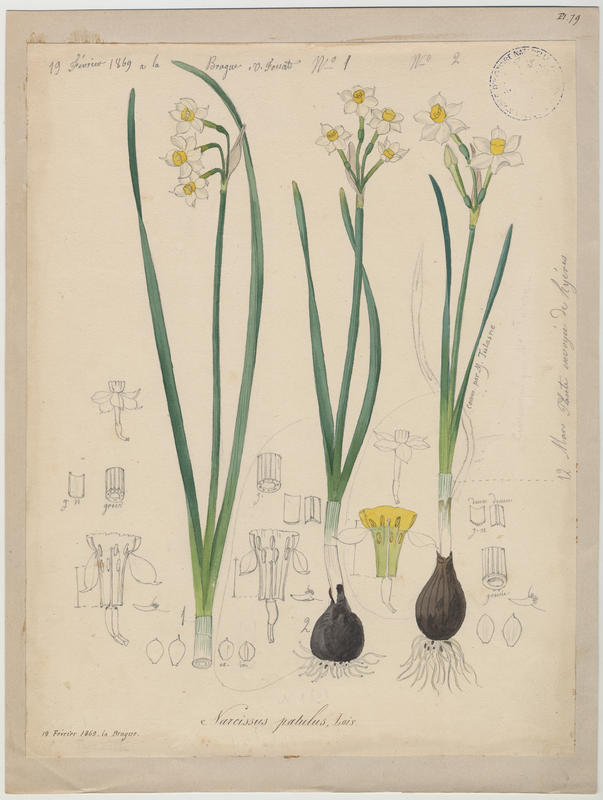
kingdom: Plantae
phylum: Tracheophyta
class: Liliopsida
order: Asparagales
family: Amaryllidaceae
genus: Narcissus
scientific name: Narcissus tazetta
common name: Bunch-flowered daffodil
